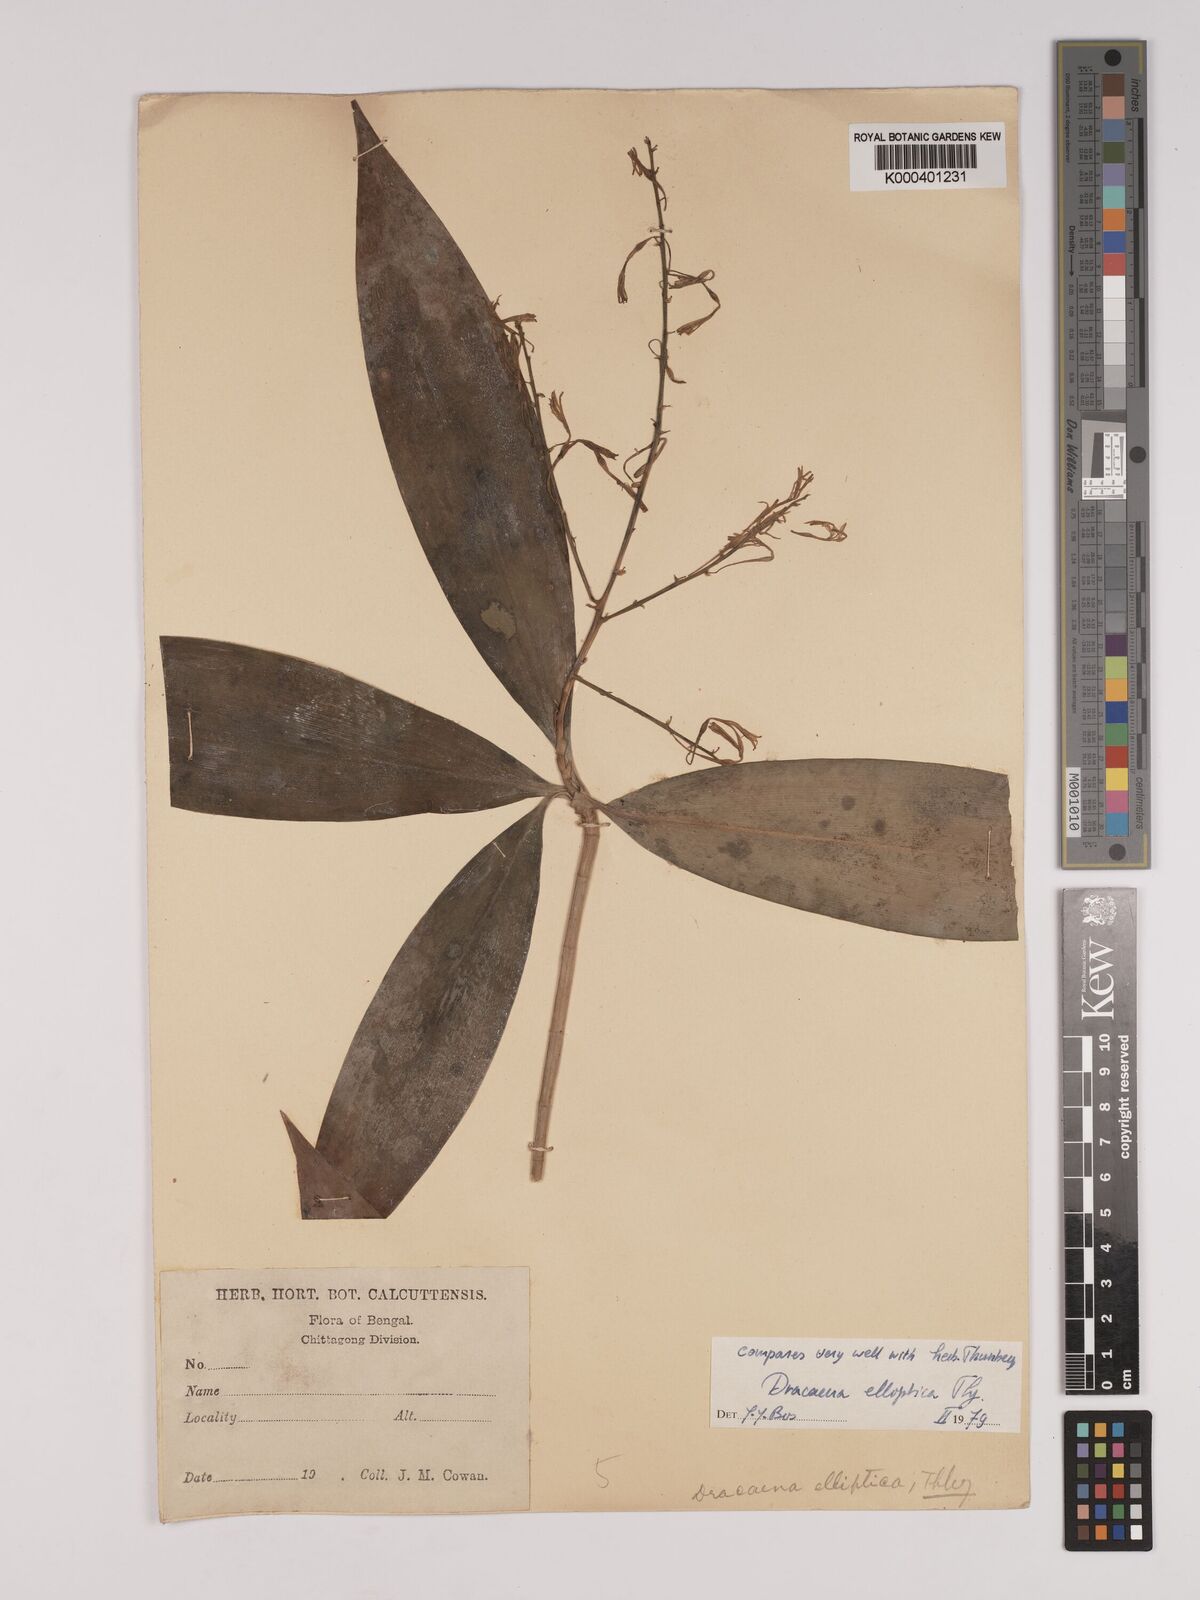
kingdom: Plantae
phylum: Tracheophyta
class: Liliopsida
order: Asparagales
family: Asparagaceae
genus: Dracaena
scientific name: Dracaena elliptica
